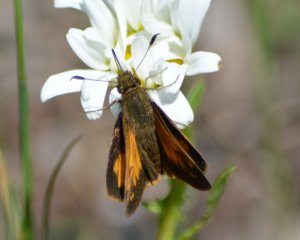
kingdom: Animalia
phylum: Arthropoda
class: Insecta
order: Lepidoptera
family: Hesperiidae
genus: Lon
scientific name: Lon hobomok
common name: Hobomok Skipper
